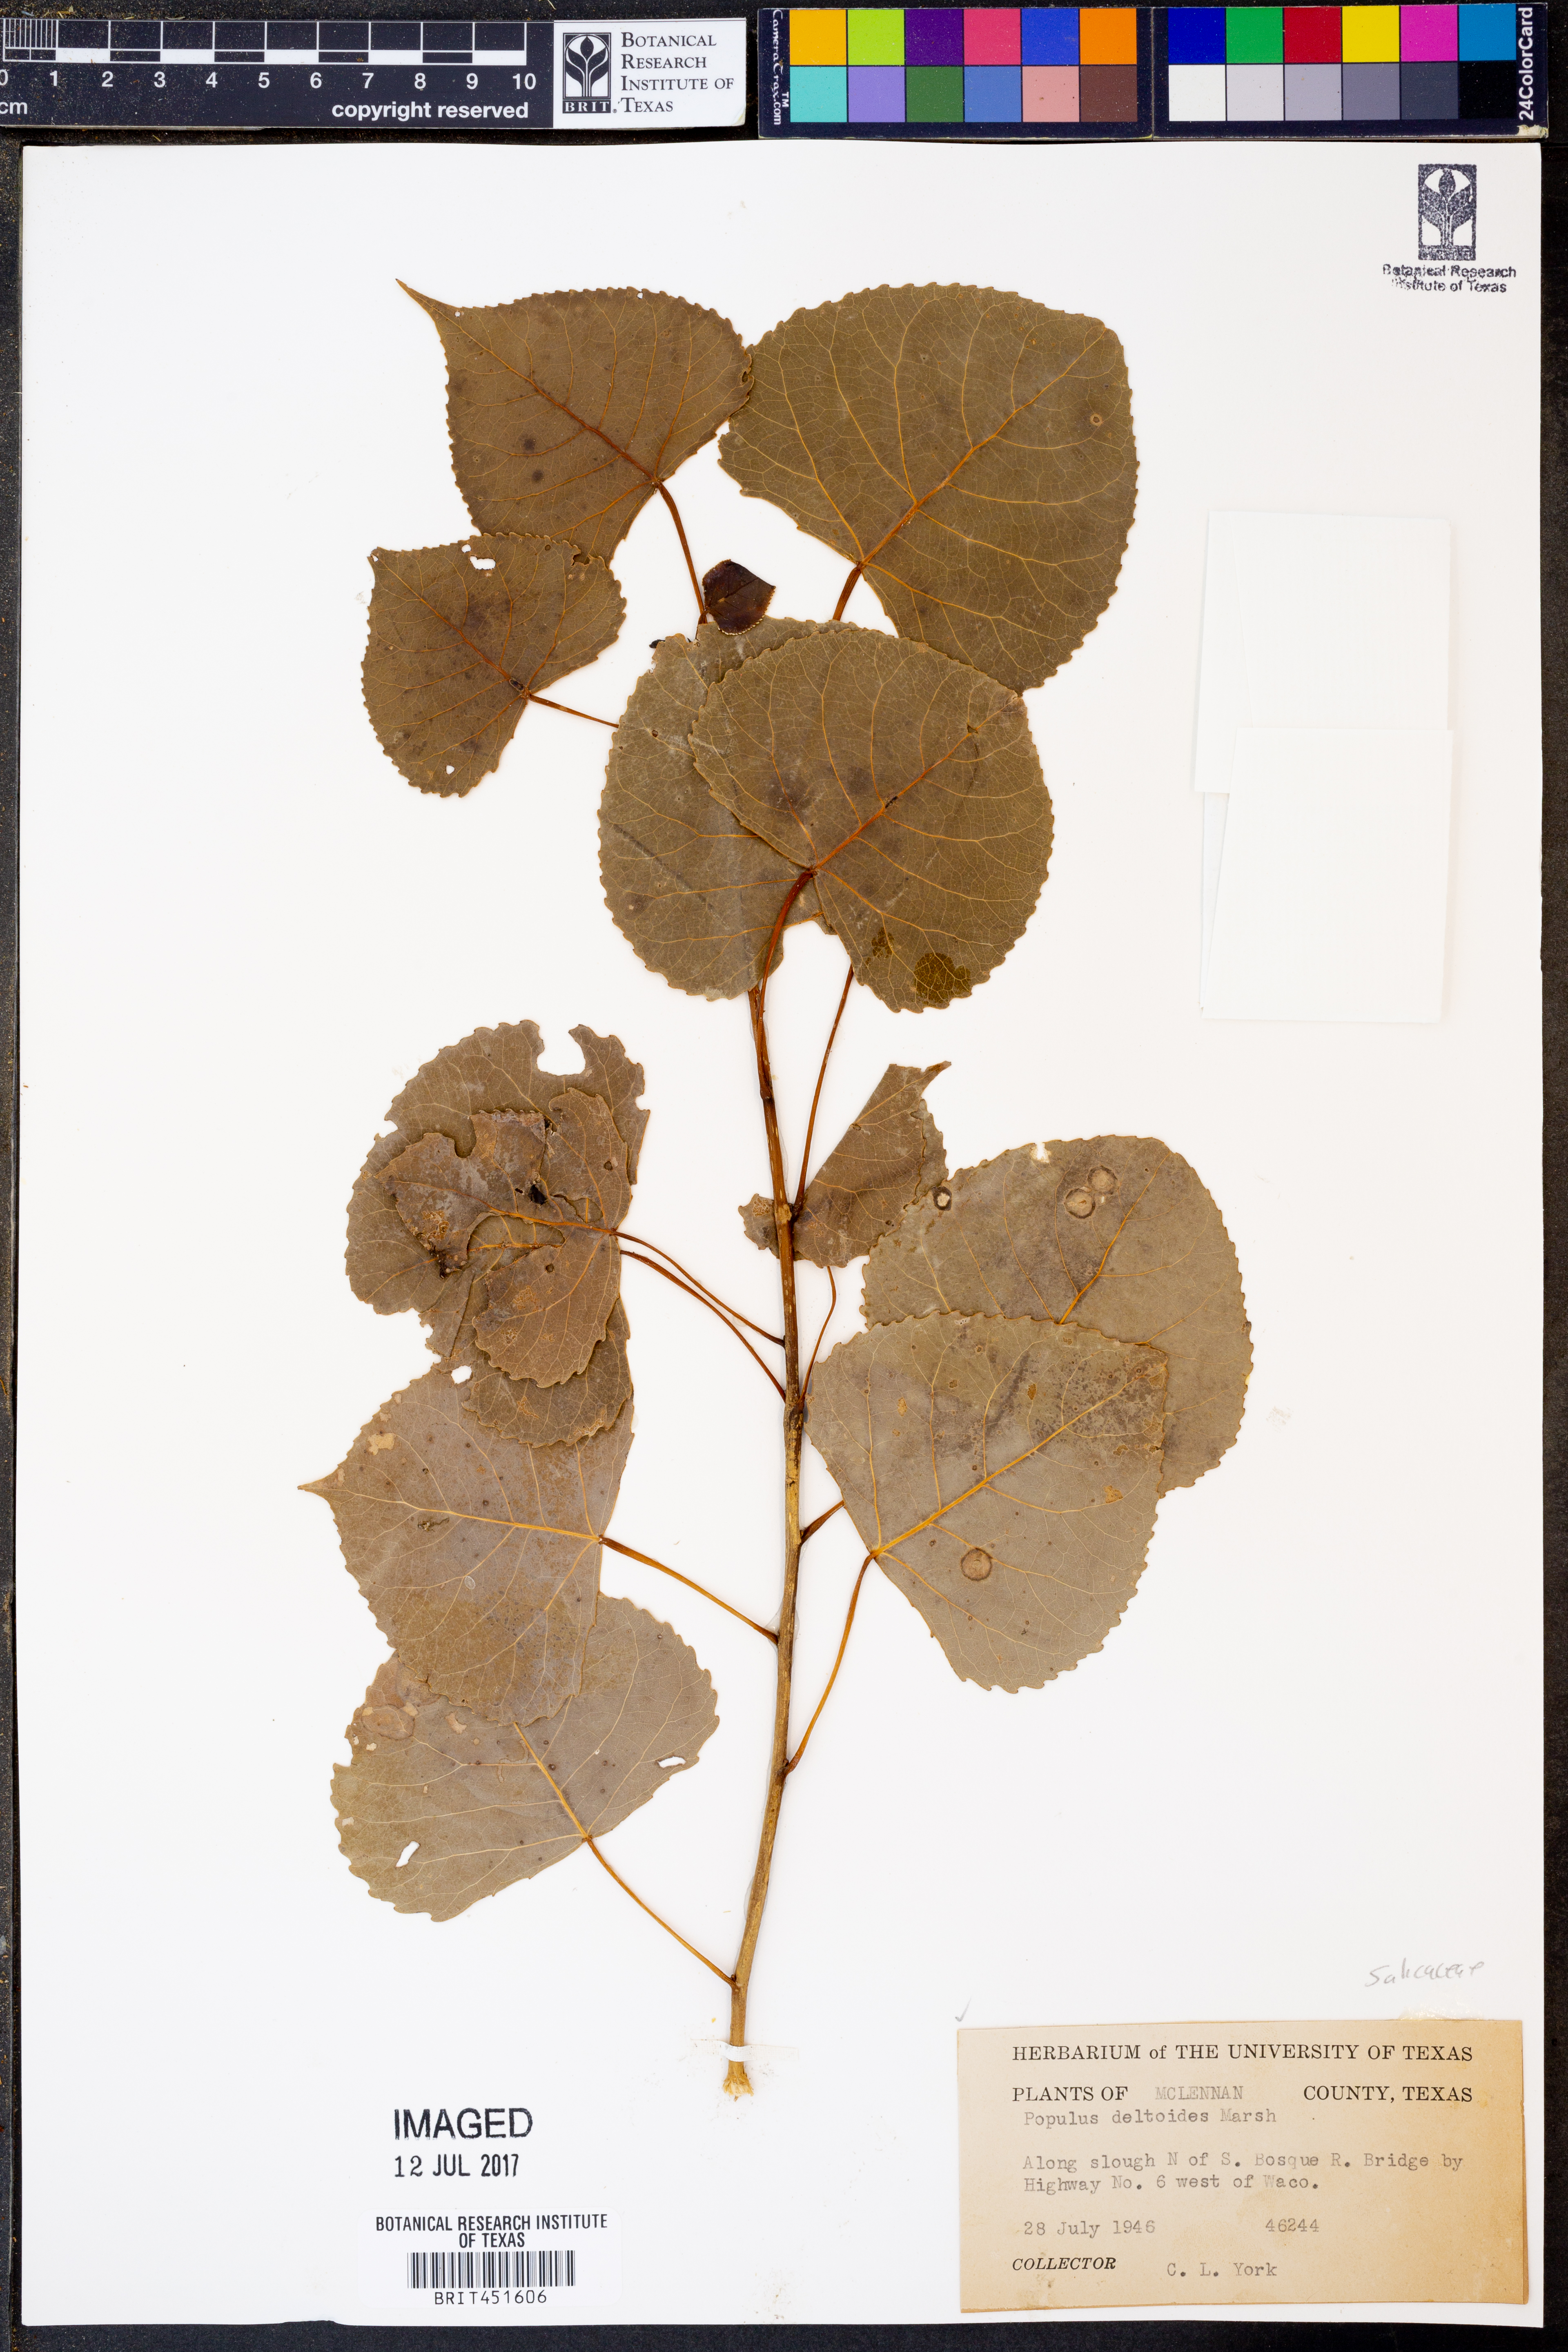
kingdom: Plantae
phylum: Tracheophyta
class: Magnoliopsida
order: Malpighiales
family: Salicaceae
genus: Populus
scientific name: Populus deltoides
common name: Eastern cottonwood
